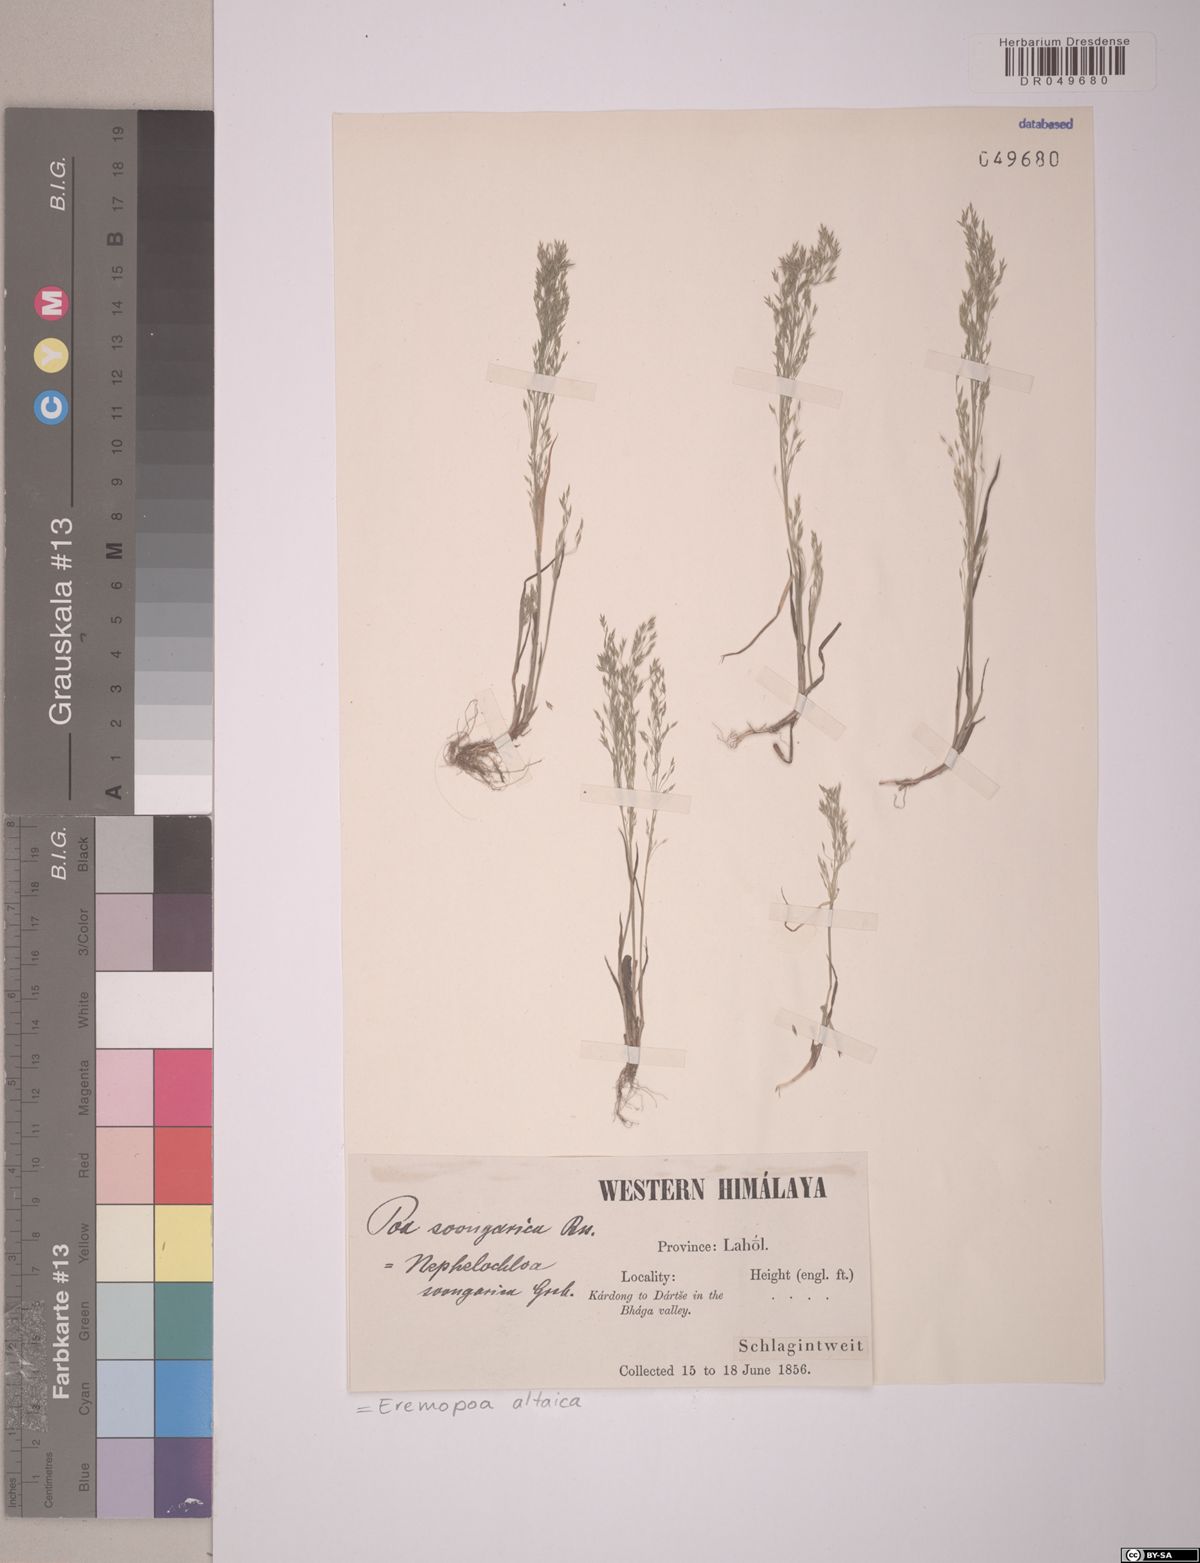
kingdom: Plantae
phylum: Tracheophyta
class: Liliopsida
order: Poales
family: Poaceae
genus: Poa
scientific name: Poa diaphora
